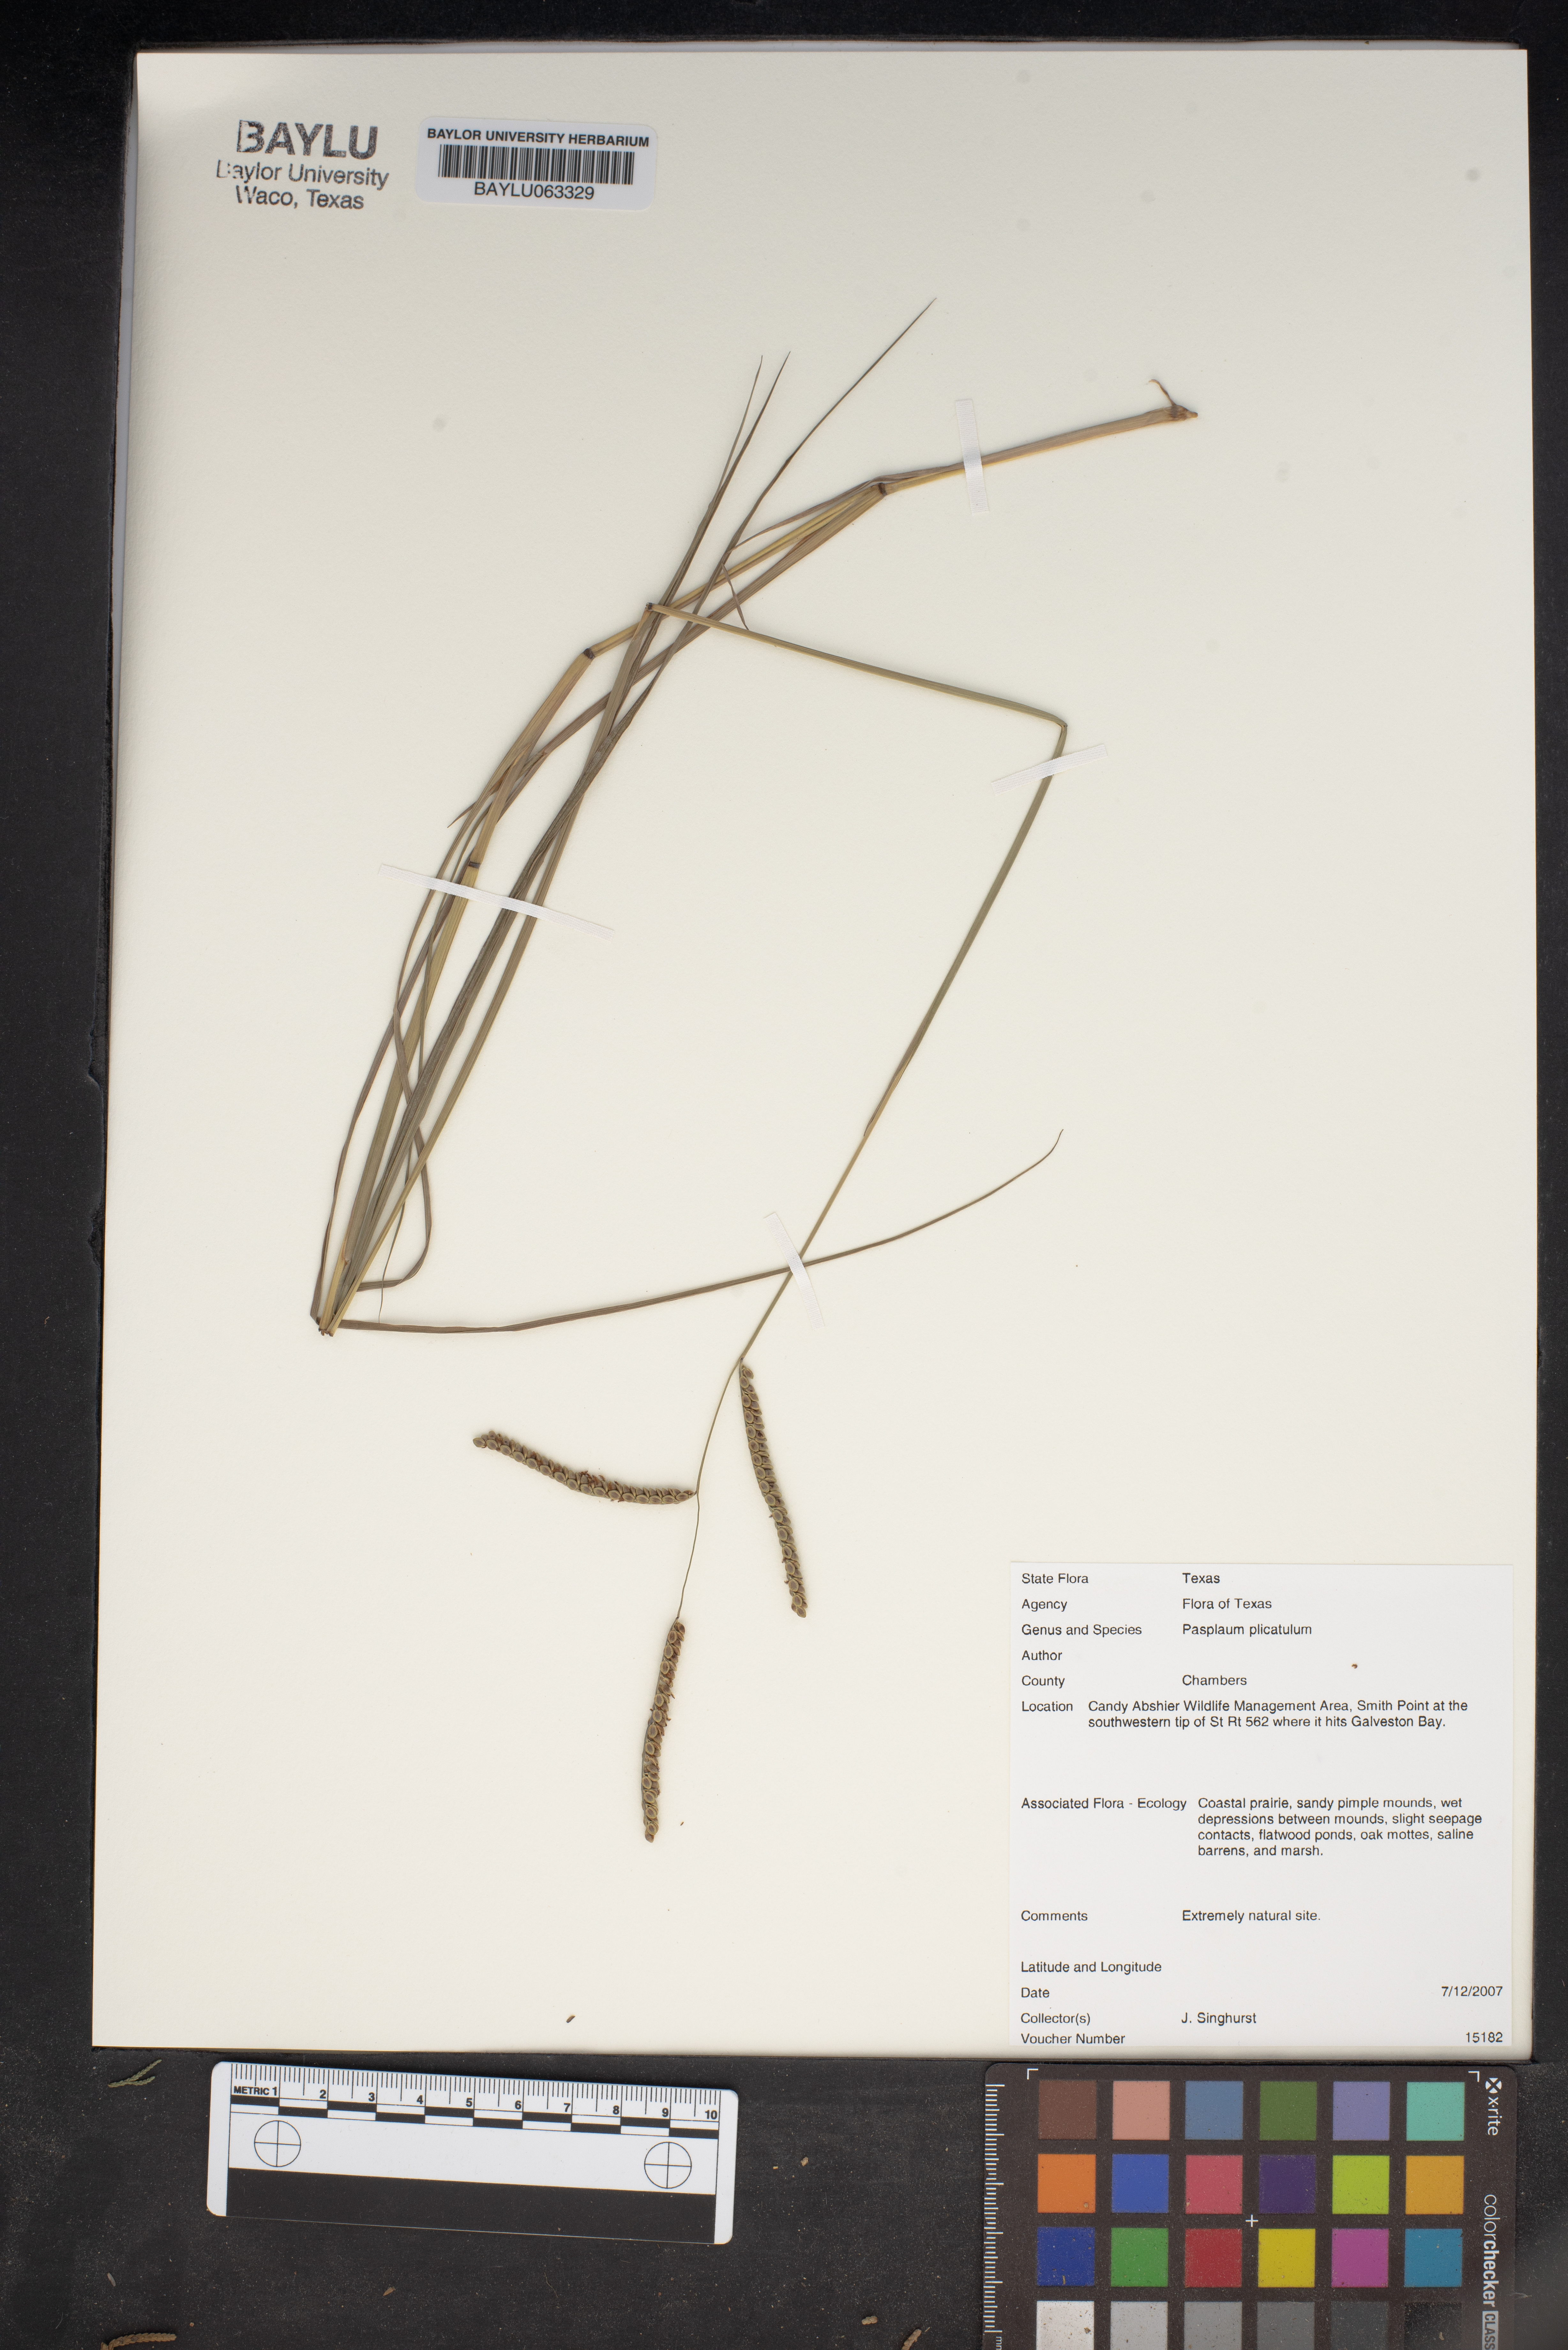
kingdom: Plantae
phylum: Tracheophyta
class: Liliopsida
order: Poales
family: Poaceae
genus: Paspalum
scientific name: Paspalum plicatulum
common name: Top paspalum
